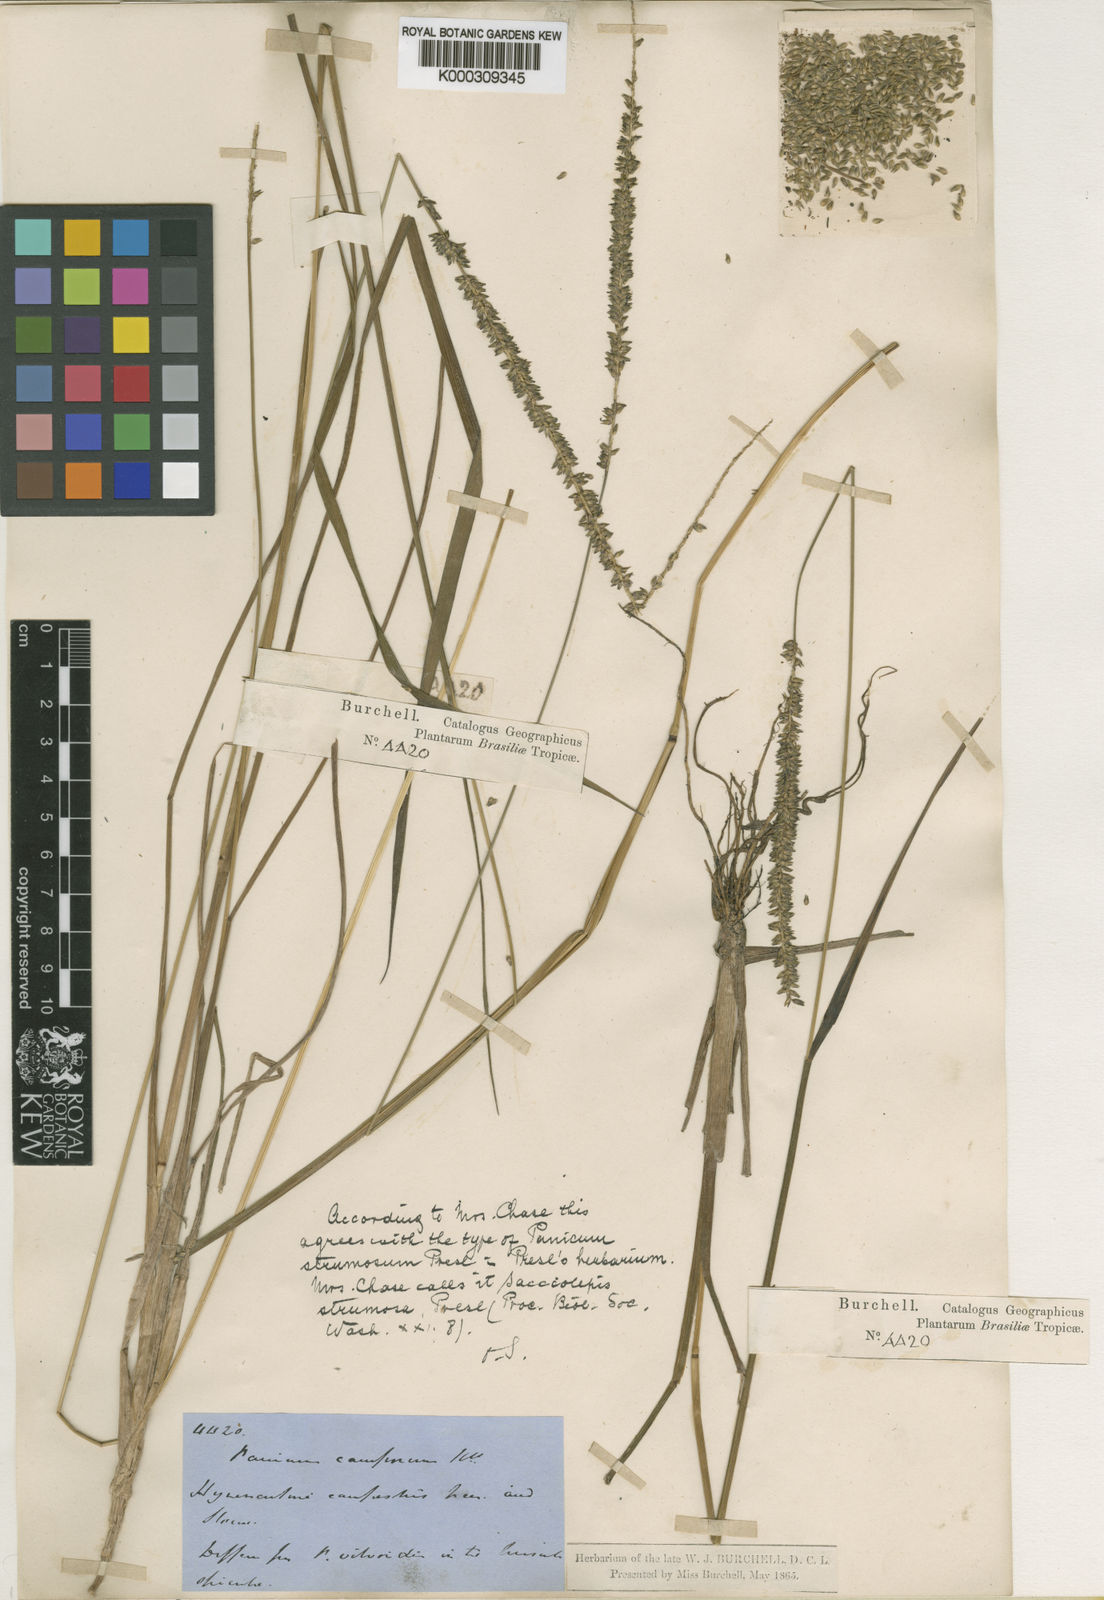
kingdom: Plantae
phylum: Tracheophyta
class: Liliopsida
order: Poales
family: Poaceae
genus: Sacciolepis
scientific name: Sacciolepis vilvoides
